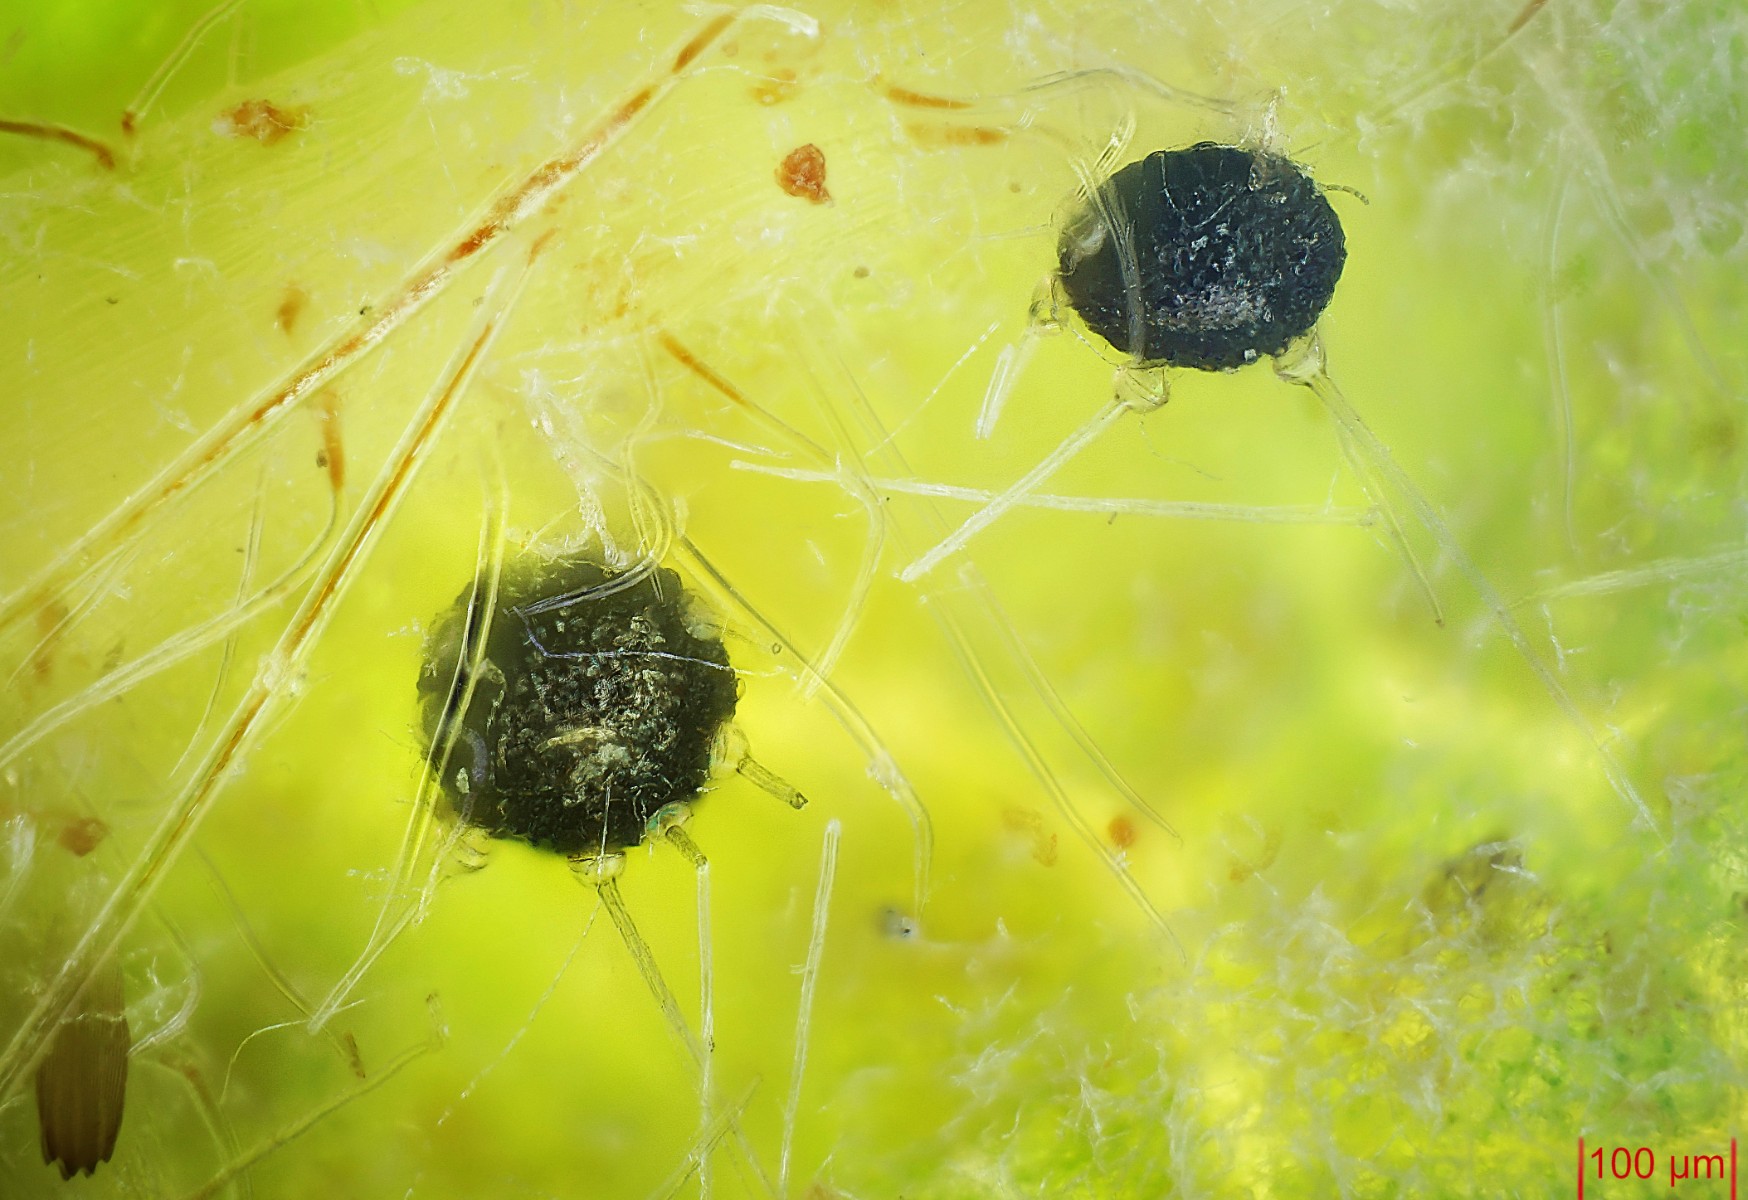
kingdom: Fungi
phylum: Ascomycota
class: Leotiomycetes
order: Helotiales
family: Erysiphaceae
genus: Phyllactinia
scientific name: Phyllactinia guttata
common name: hassel-meldug
